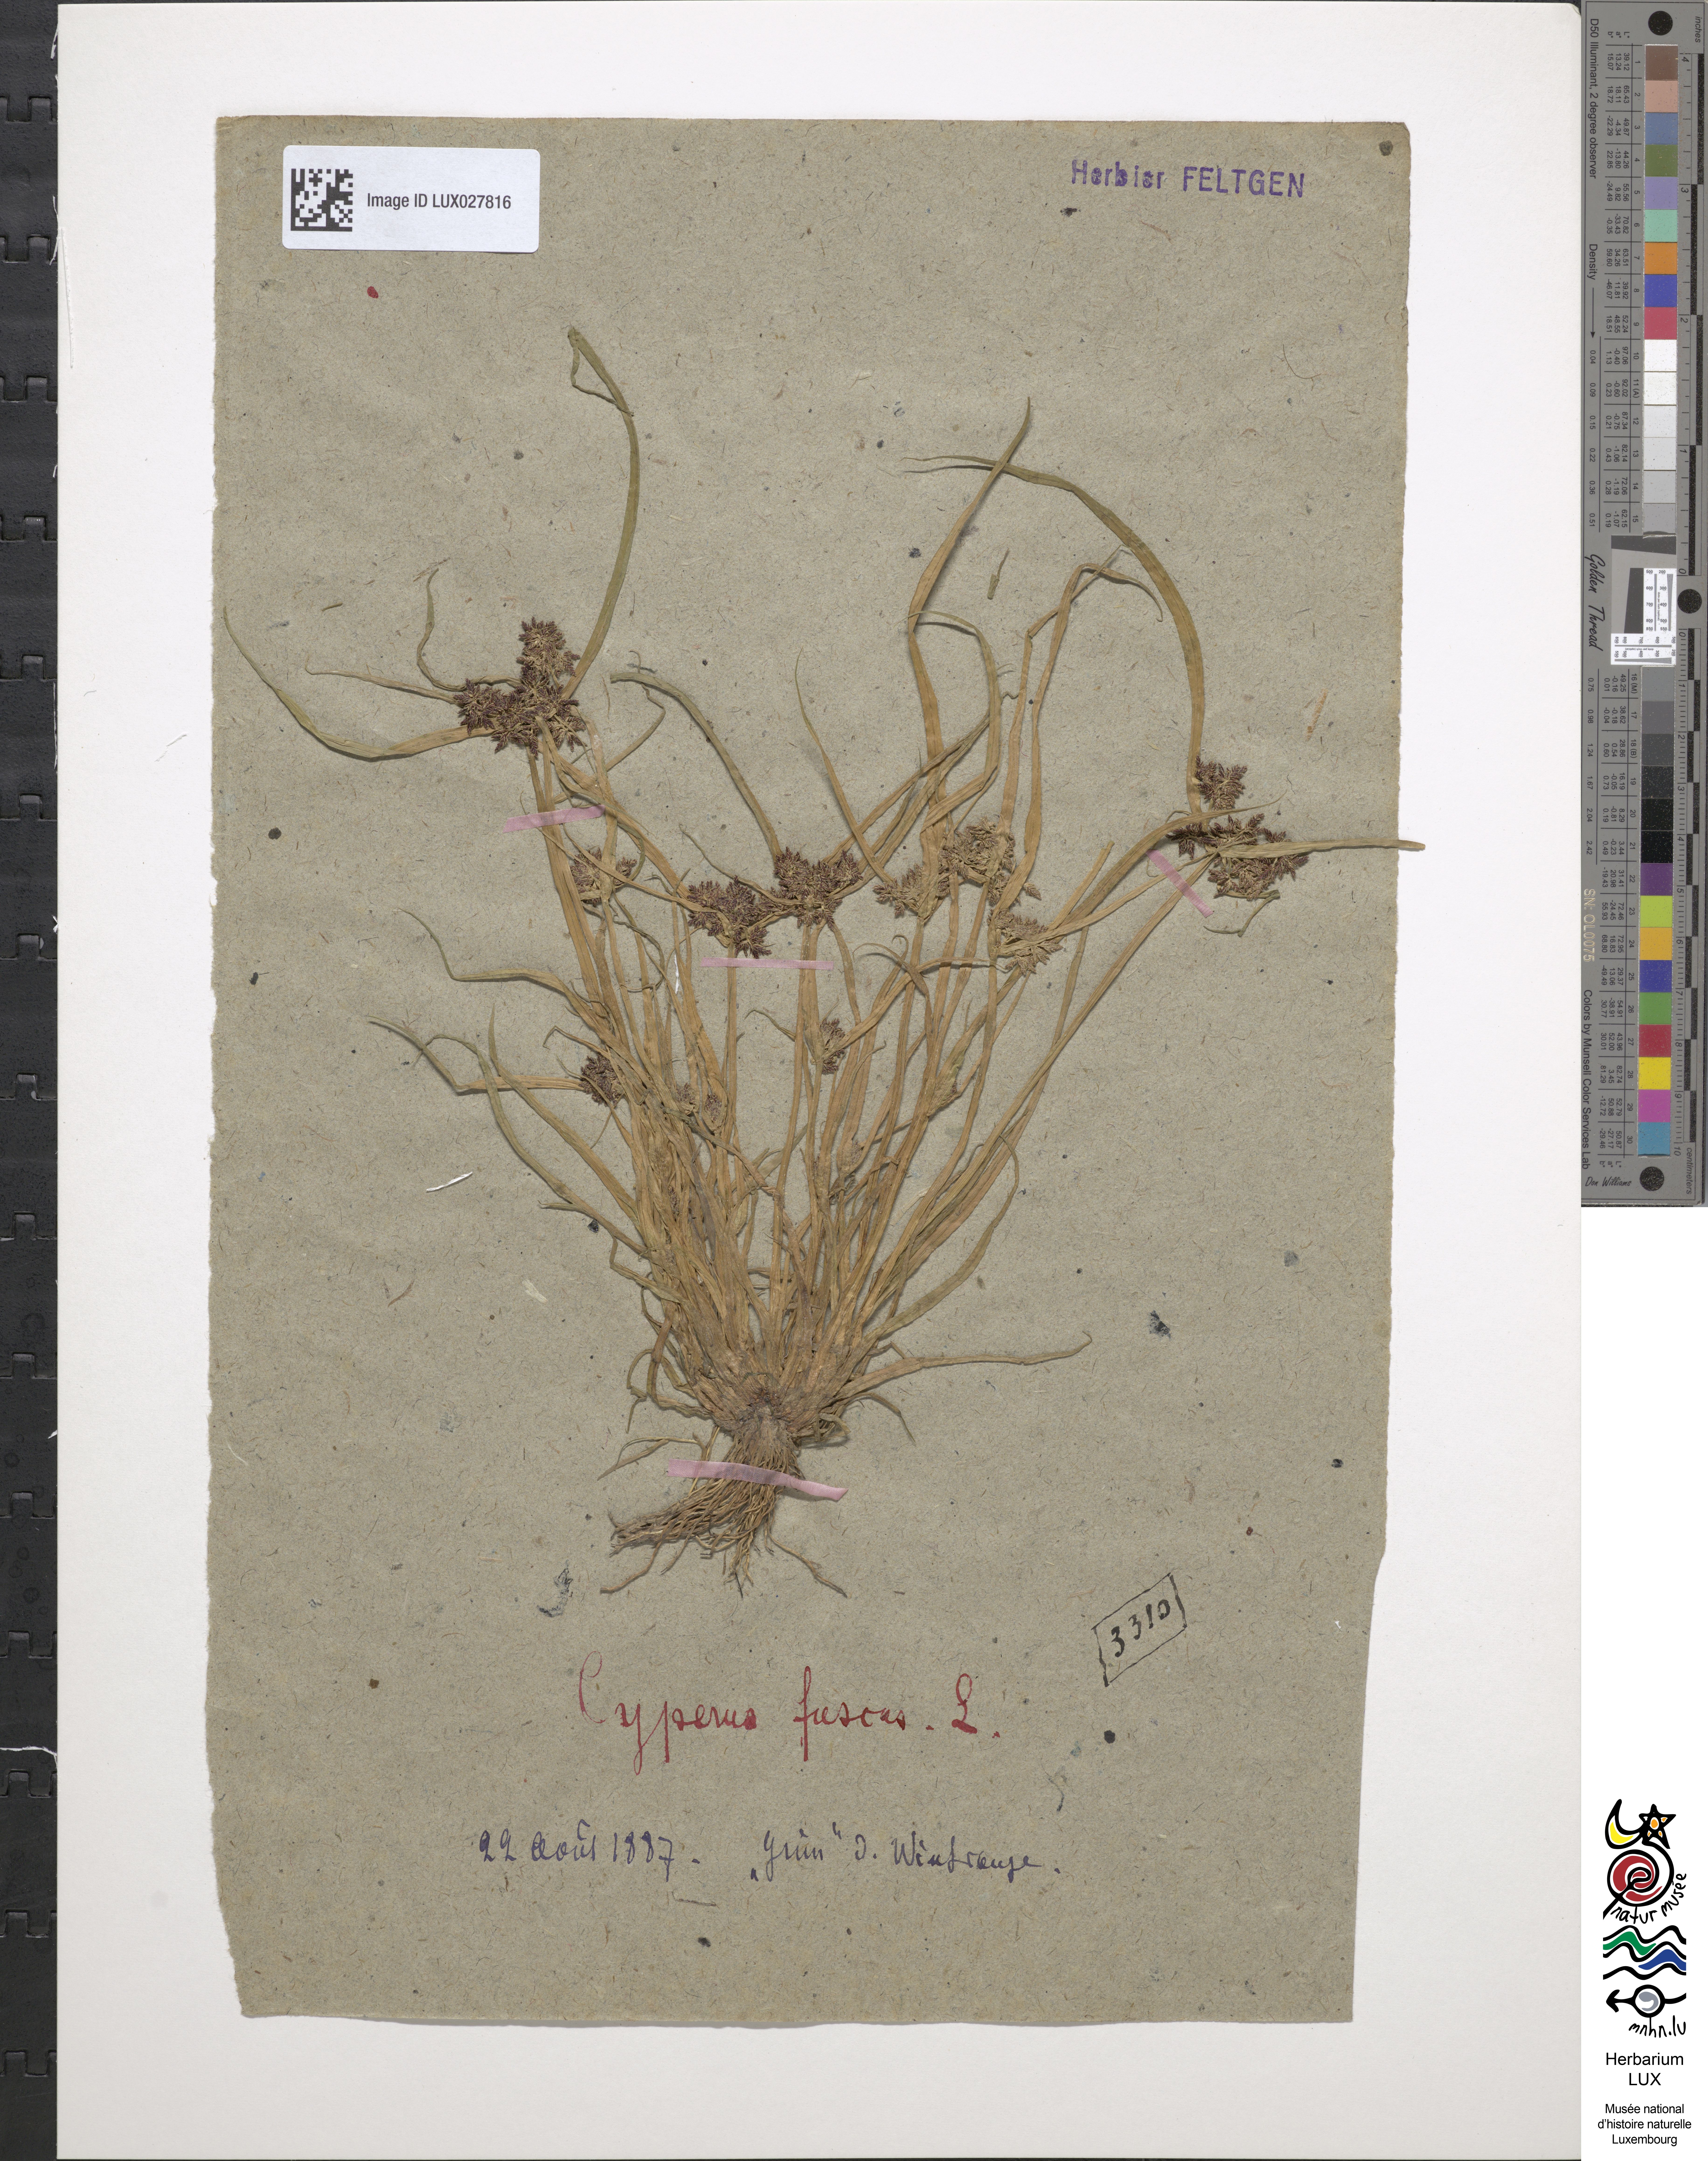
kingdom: Plantae
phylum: Tracheophyta
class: Liliopsida
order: Poales
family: Cyperaceae
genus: Cyperus
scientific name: Cyperus fuscus
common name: Brown galingale
